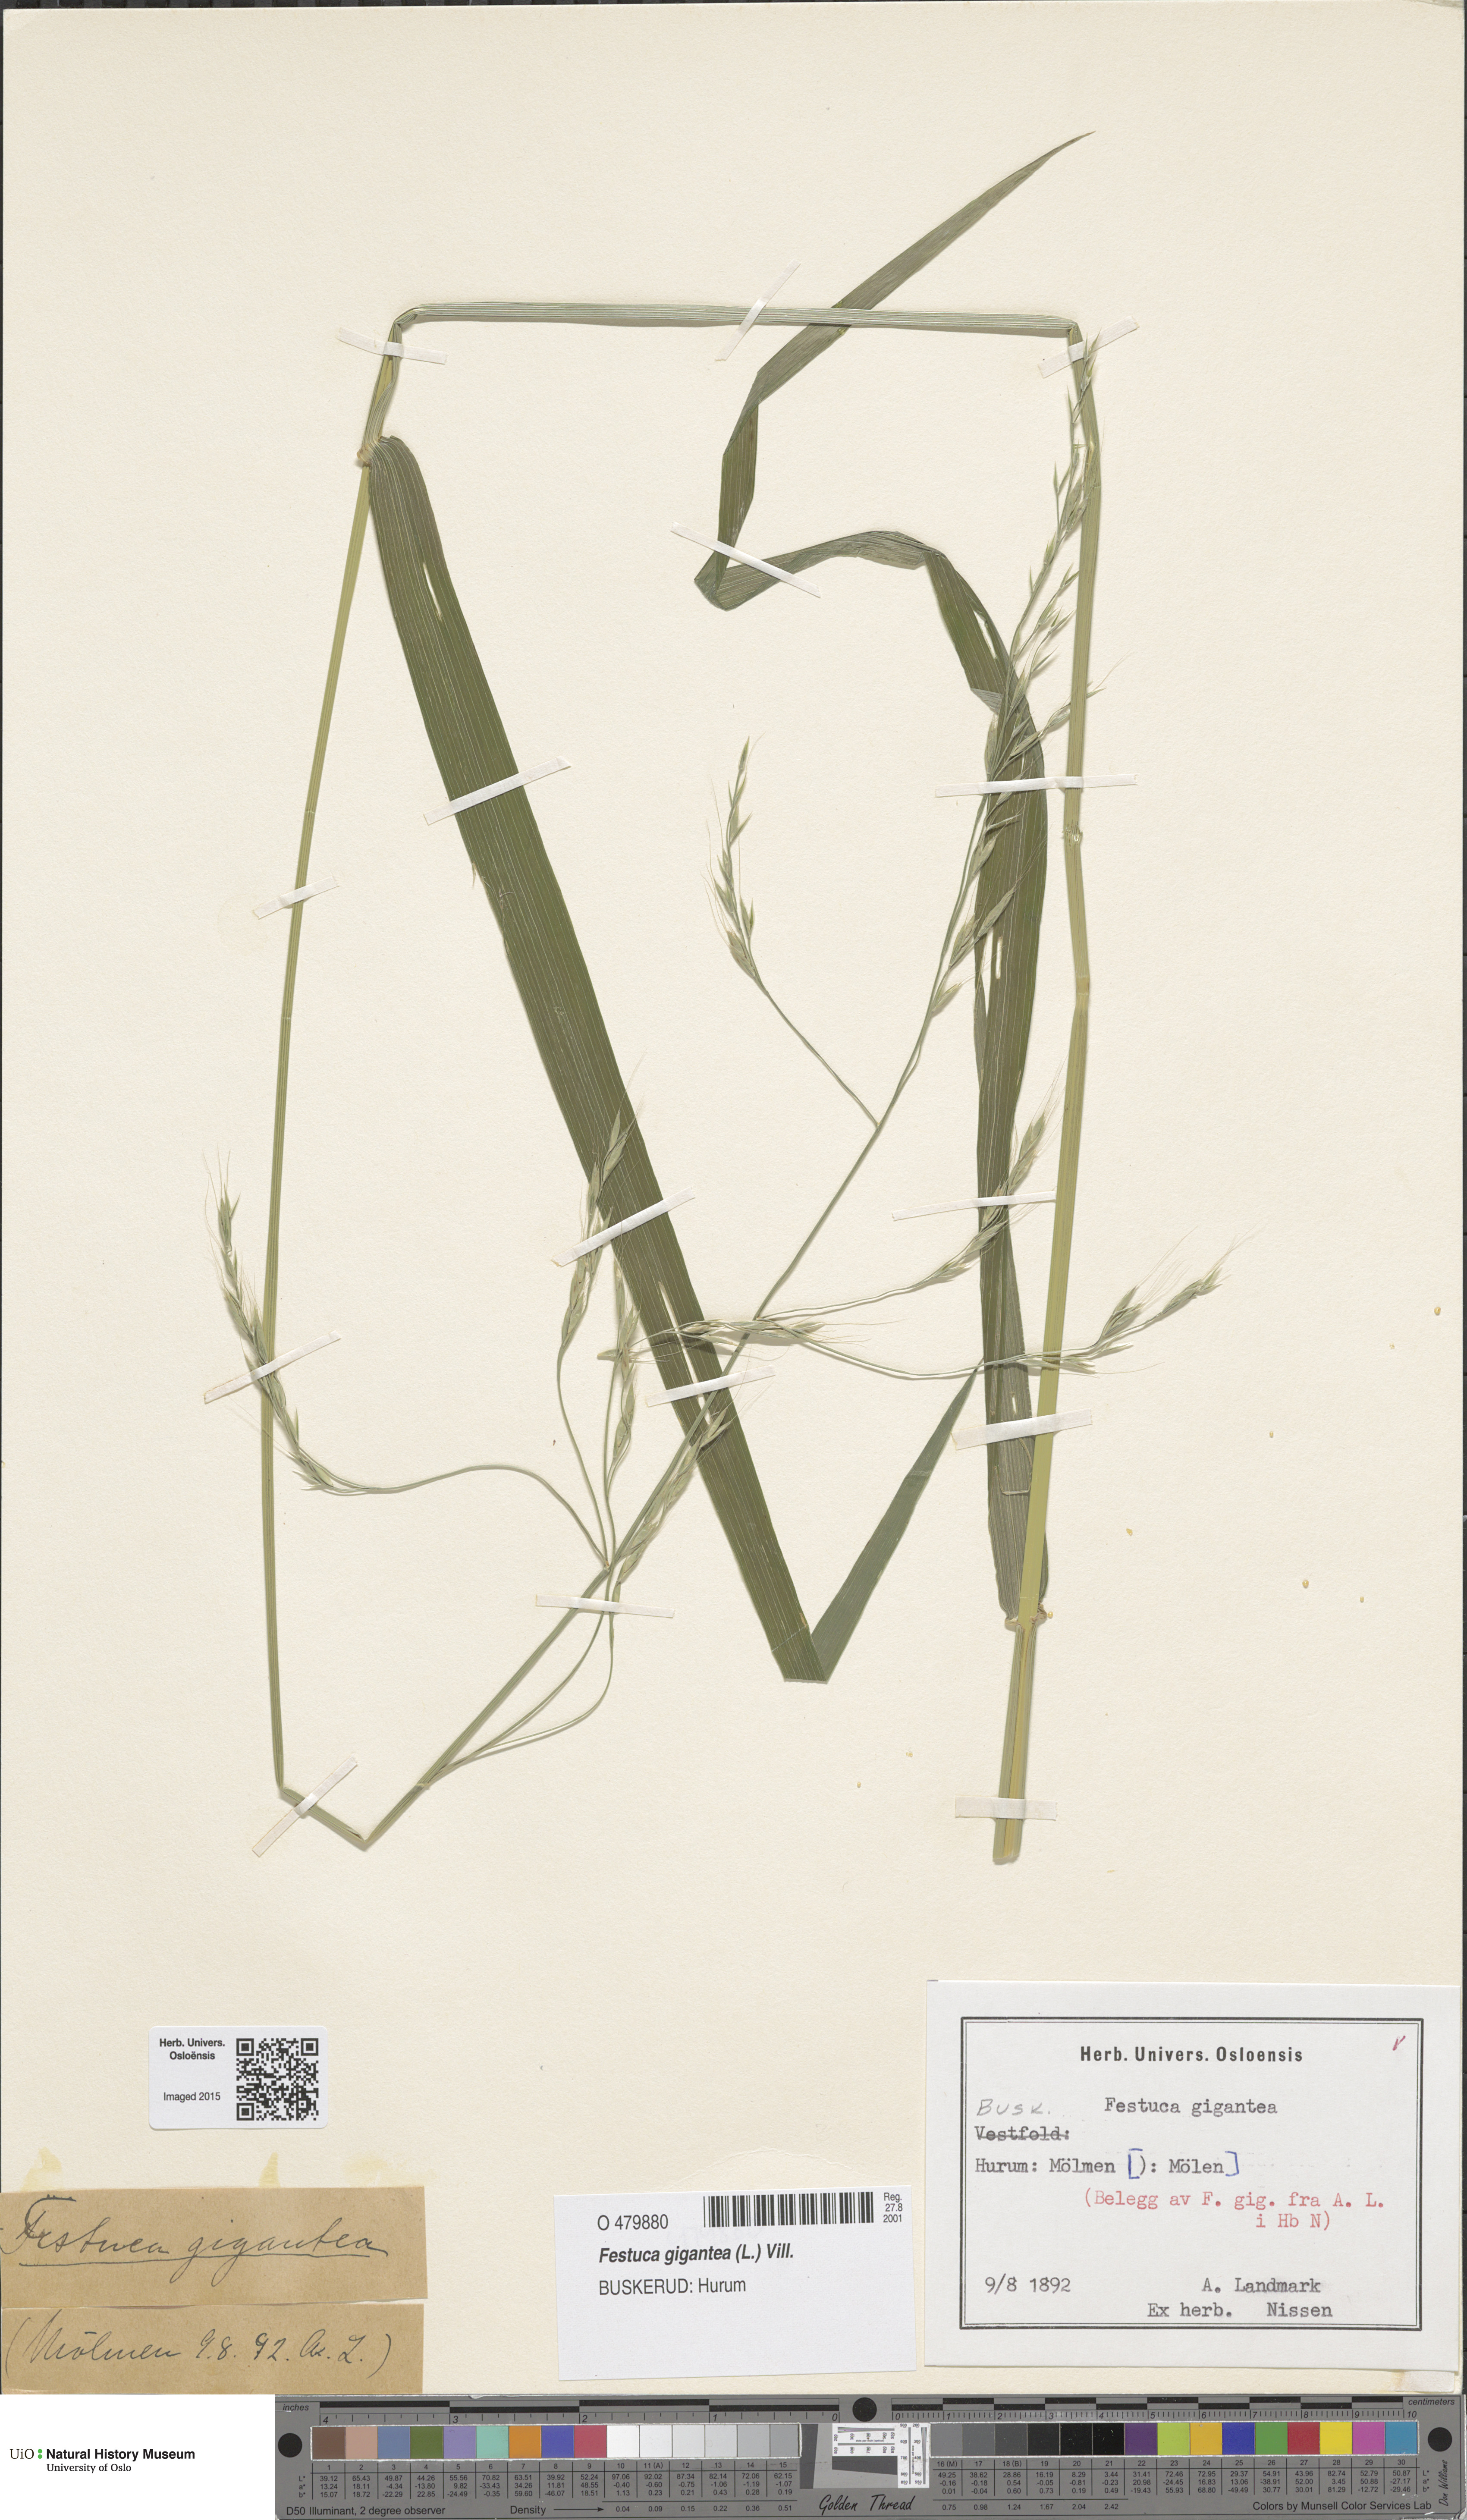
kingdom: Plantae
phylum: Tracheophyta
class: Liliopsida
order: Poales
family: Poaceae
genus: Lolium
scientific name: Lolium giganteum
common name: Giant fescue
